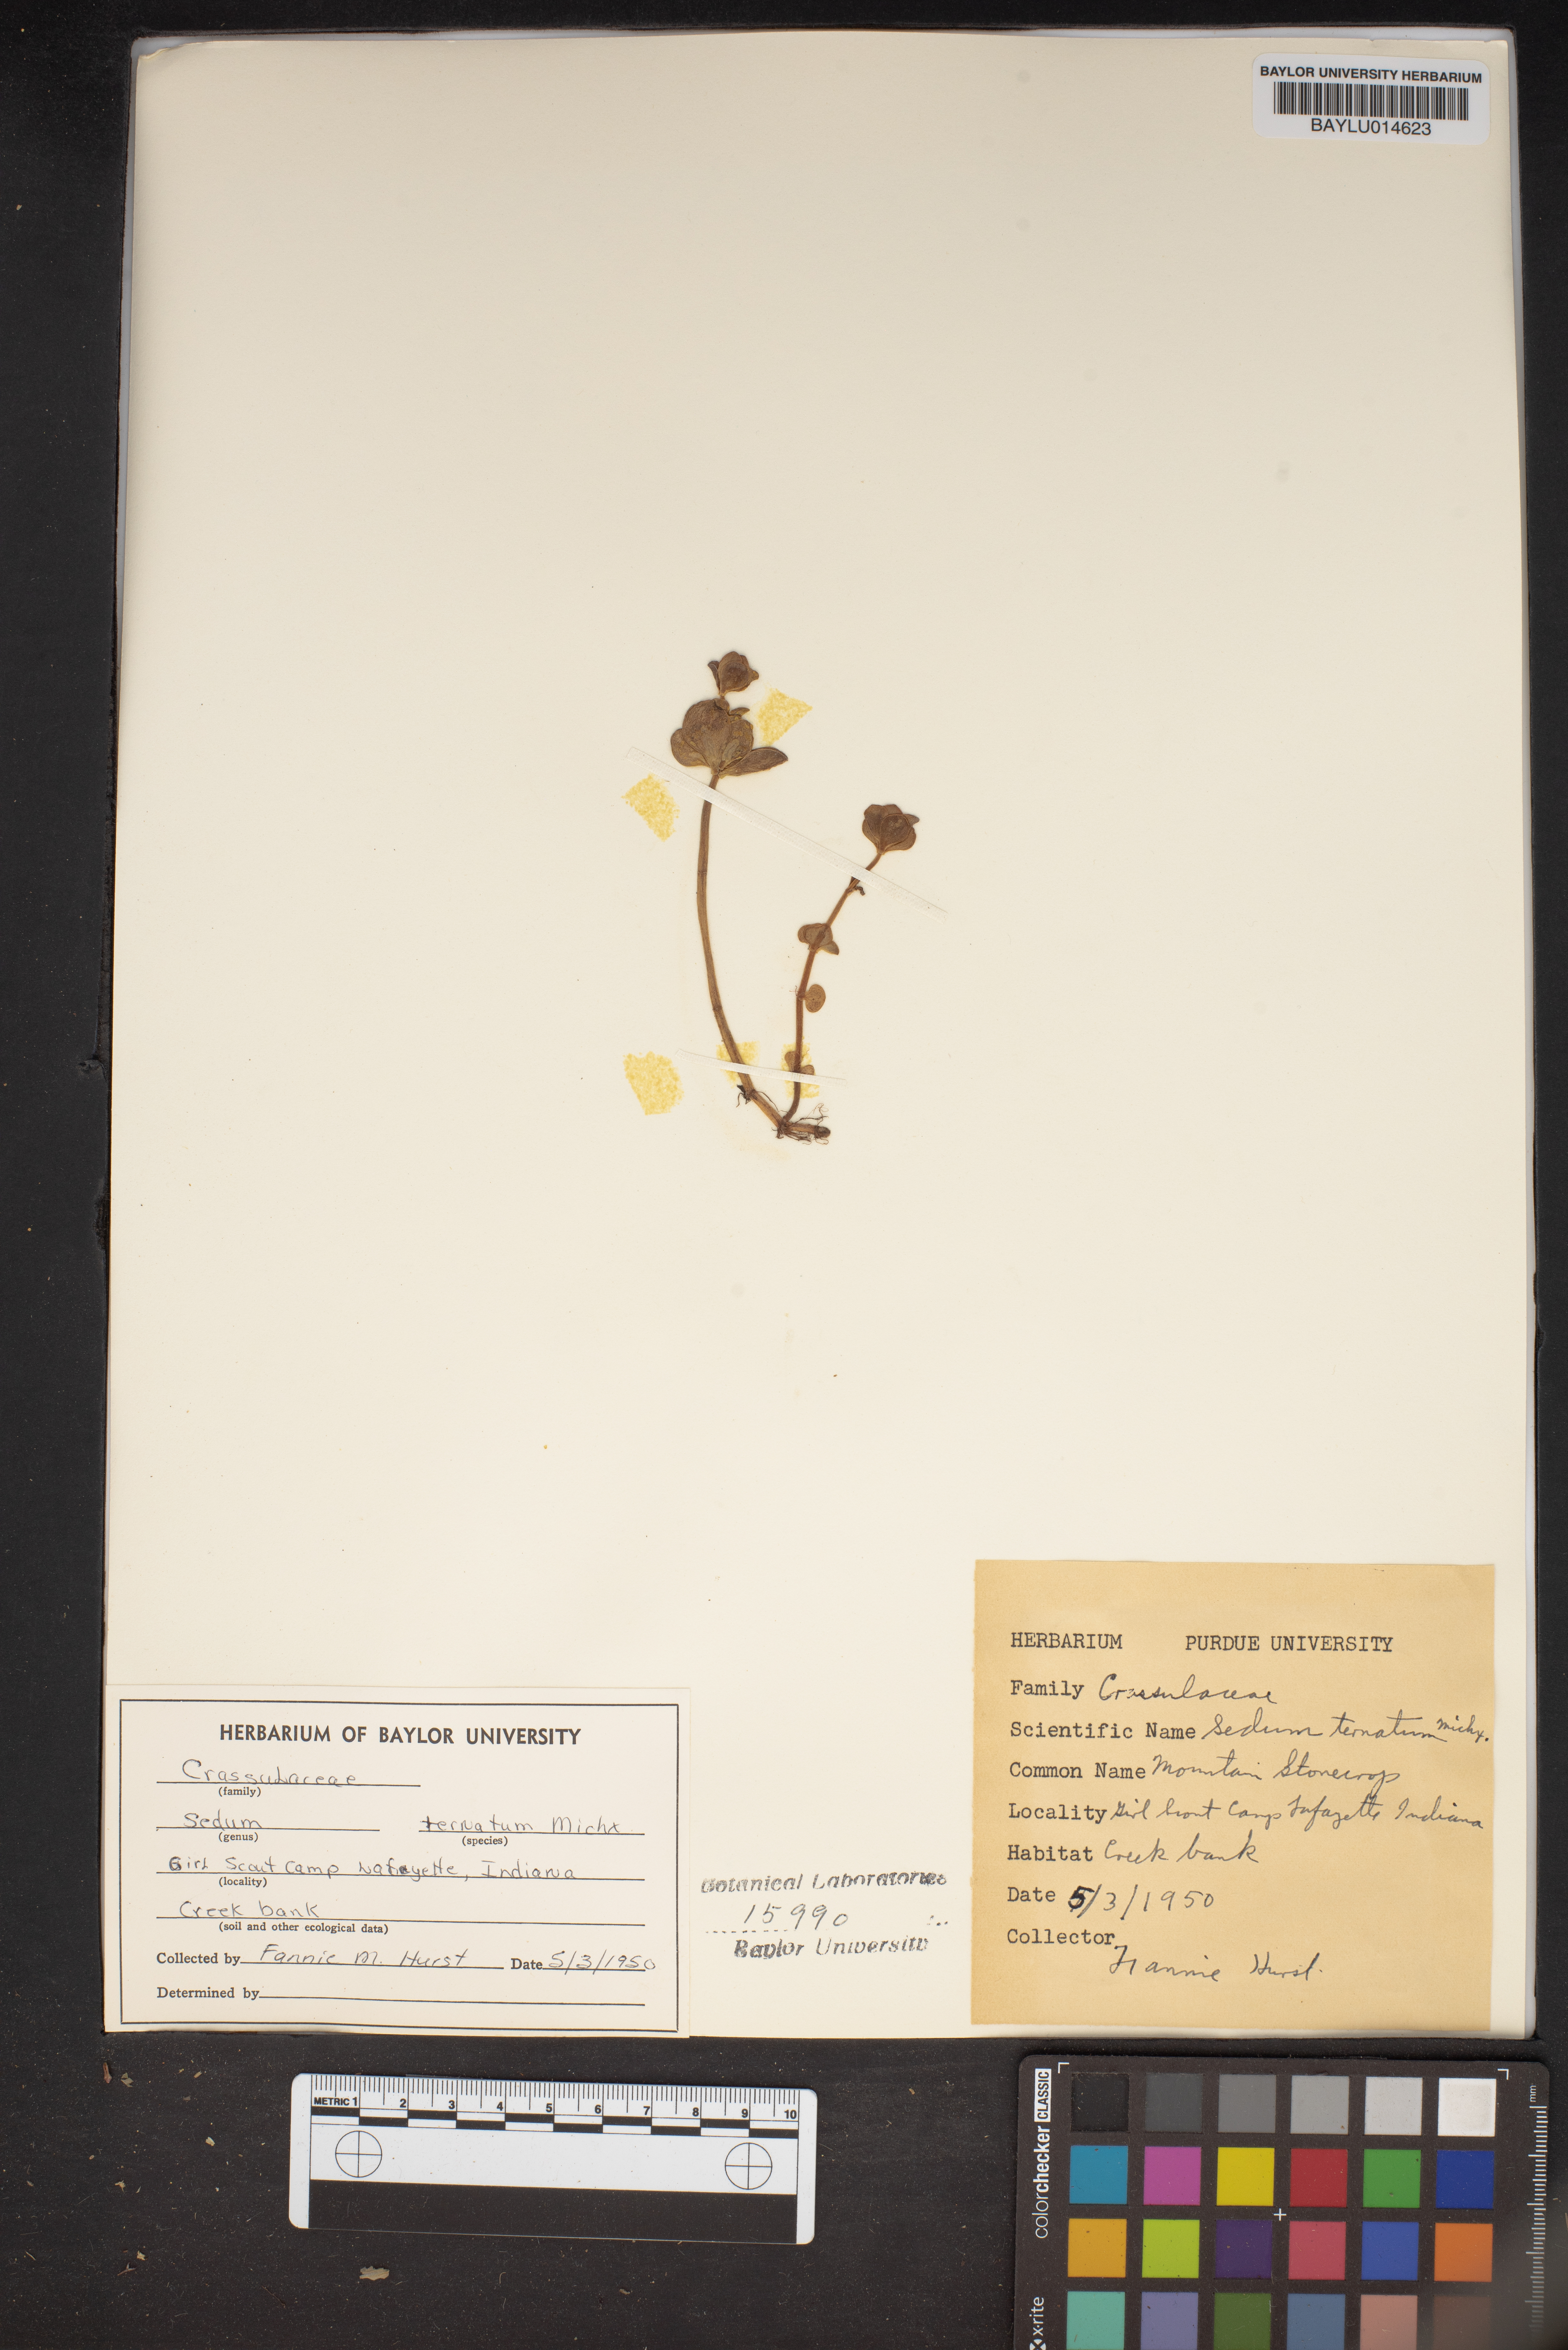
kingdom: Plantae
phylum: Tracheophyta
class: Magnoliopsida
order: Saxifragales
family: Crassulaceae
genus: Sedum
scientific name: Sedum ternatum
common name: Wild stonecrop
